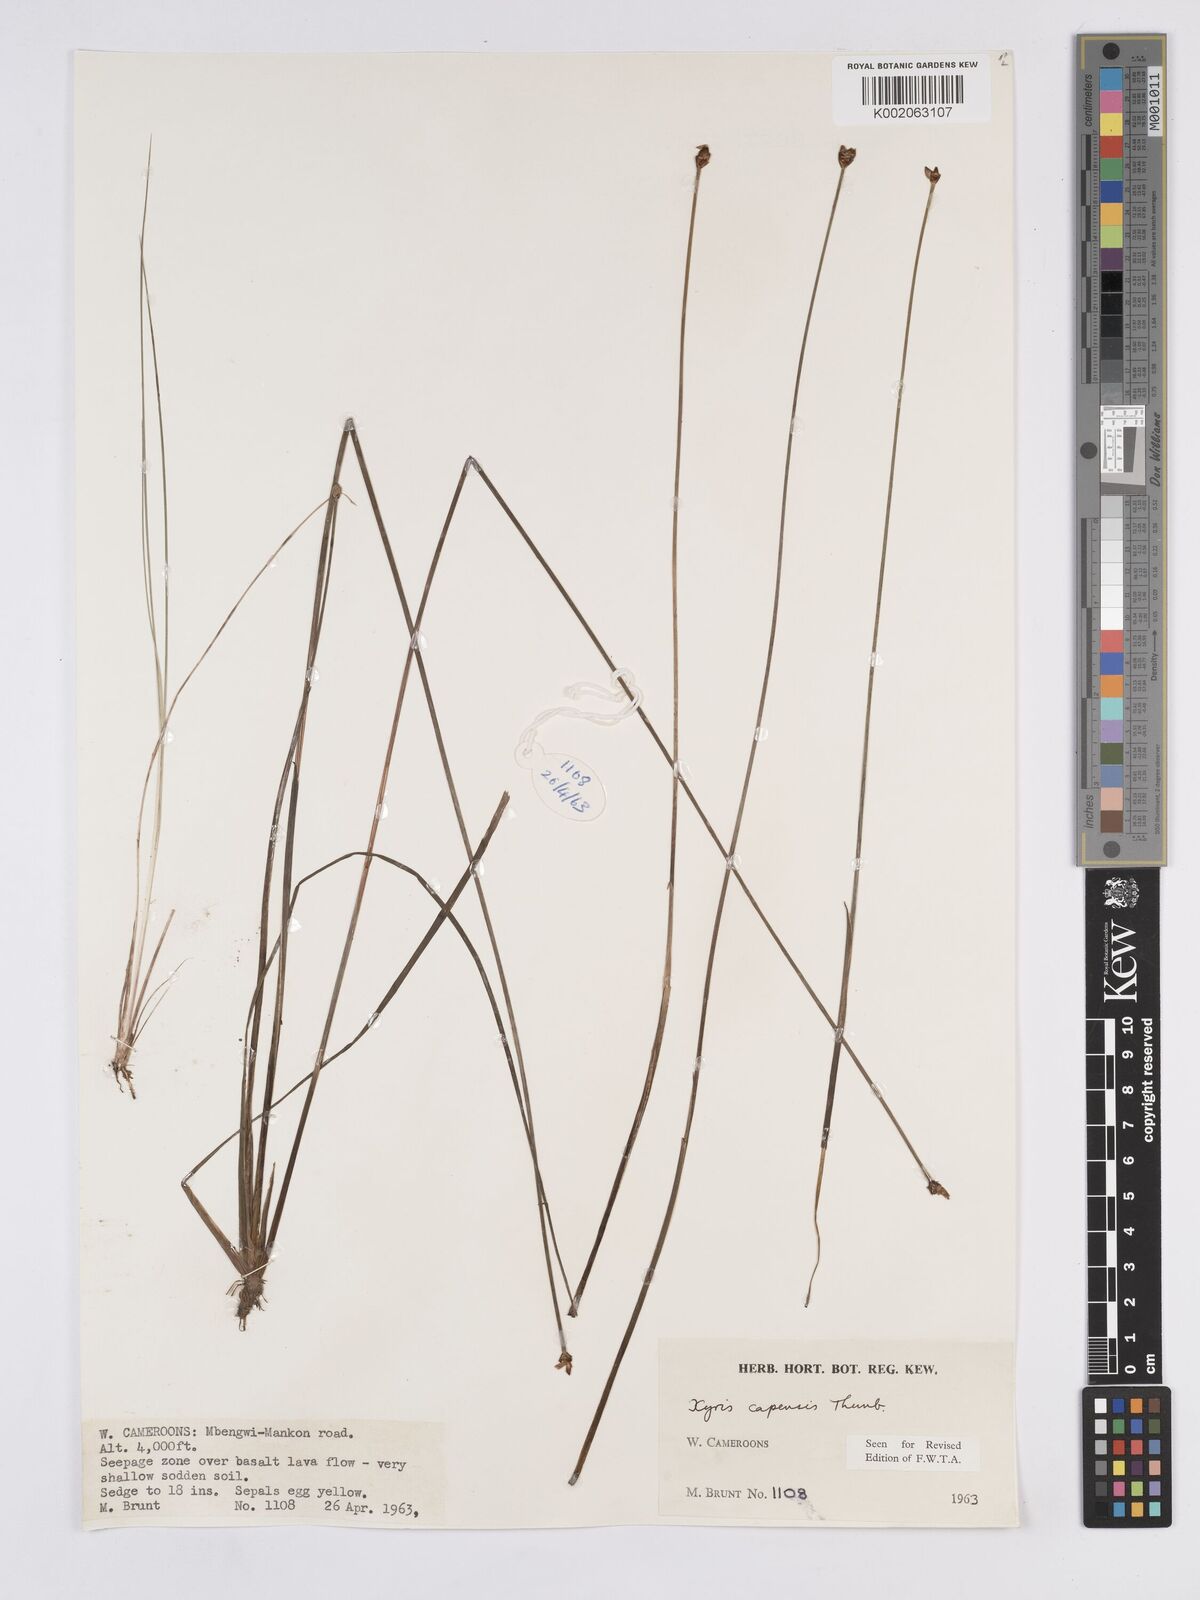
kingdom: Plantae
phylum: Tracheophyta
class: Liliopsida
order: Poales
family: Xyridaceae
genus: Xyris
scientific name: Xyris capensis
